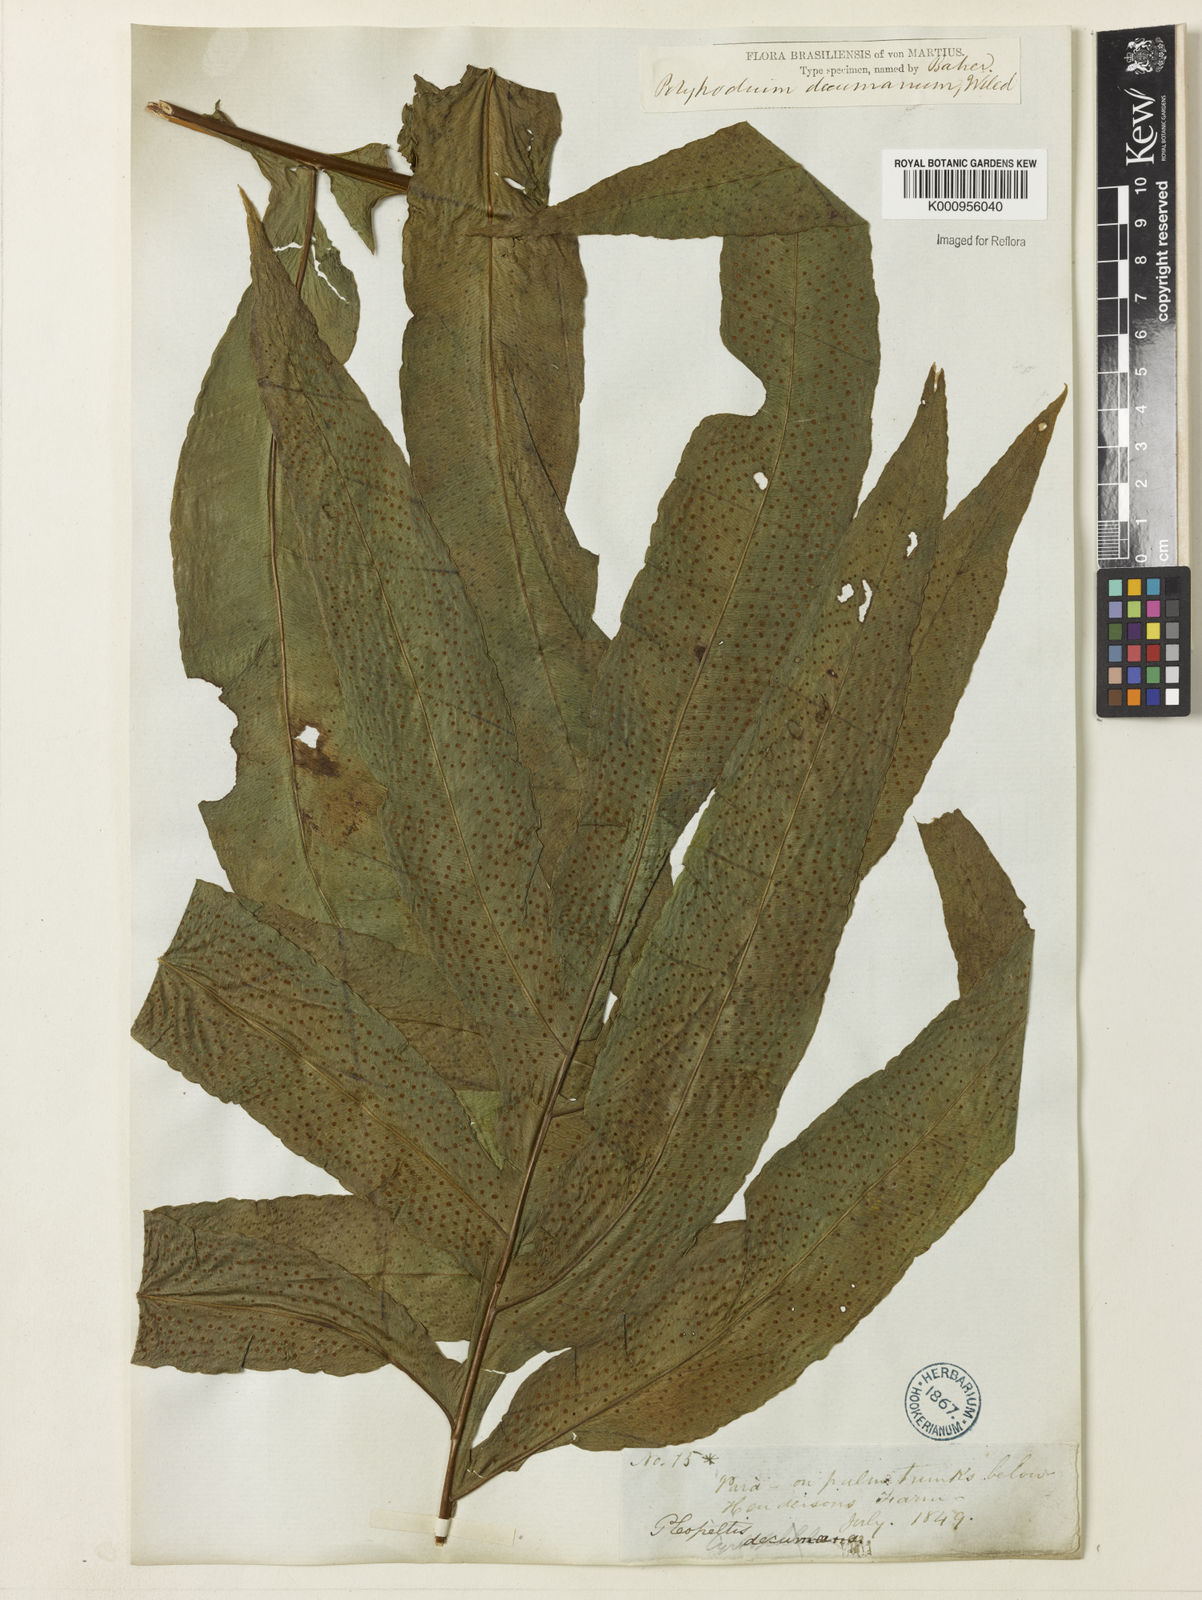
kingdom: Plantae
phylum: Tracheophyta
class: Polypodiopsida
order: Polypodiales
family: Polypodiaceae
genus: Phlebodium
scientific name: Phlebodium decumanum
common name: Golden polypod
